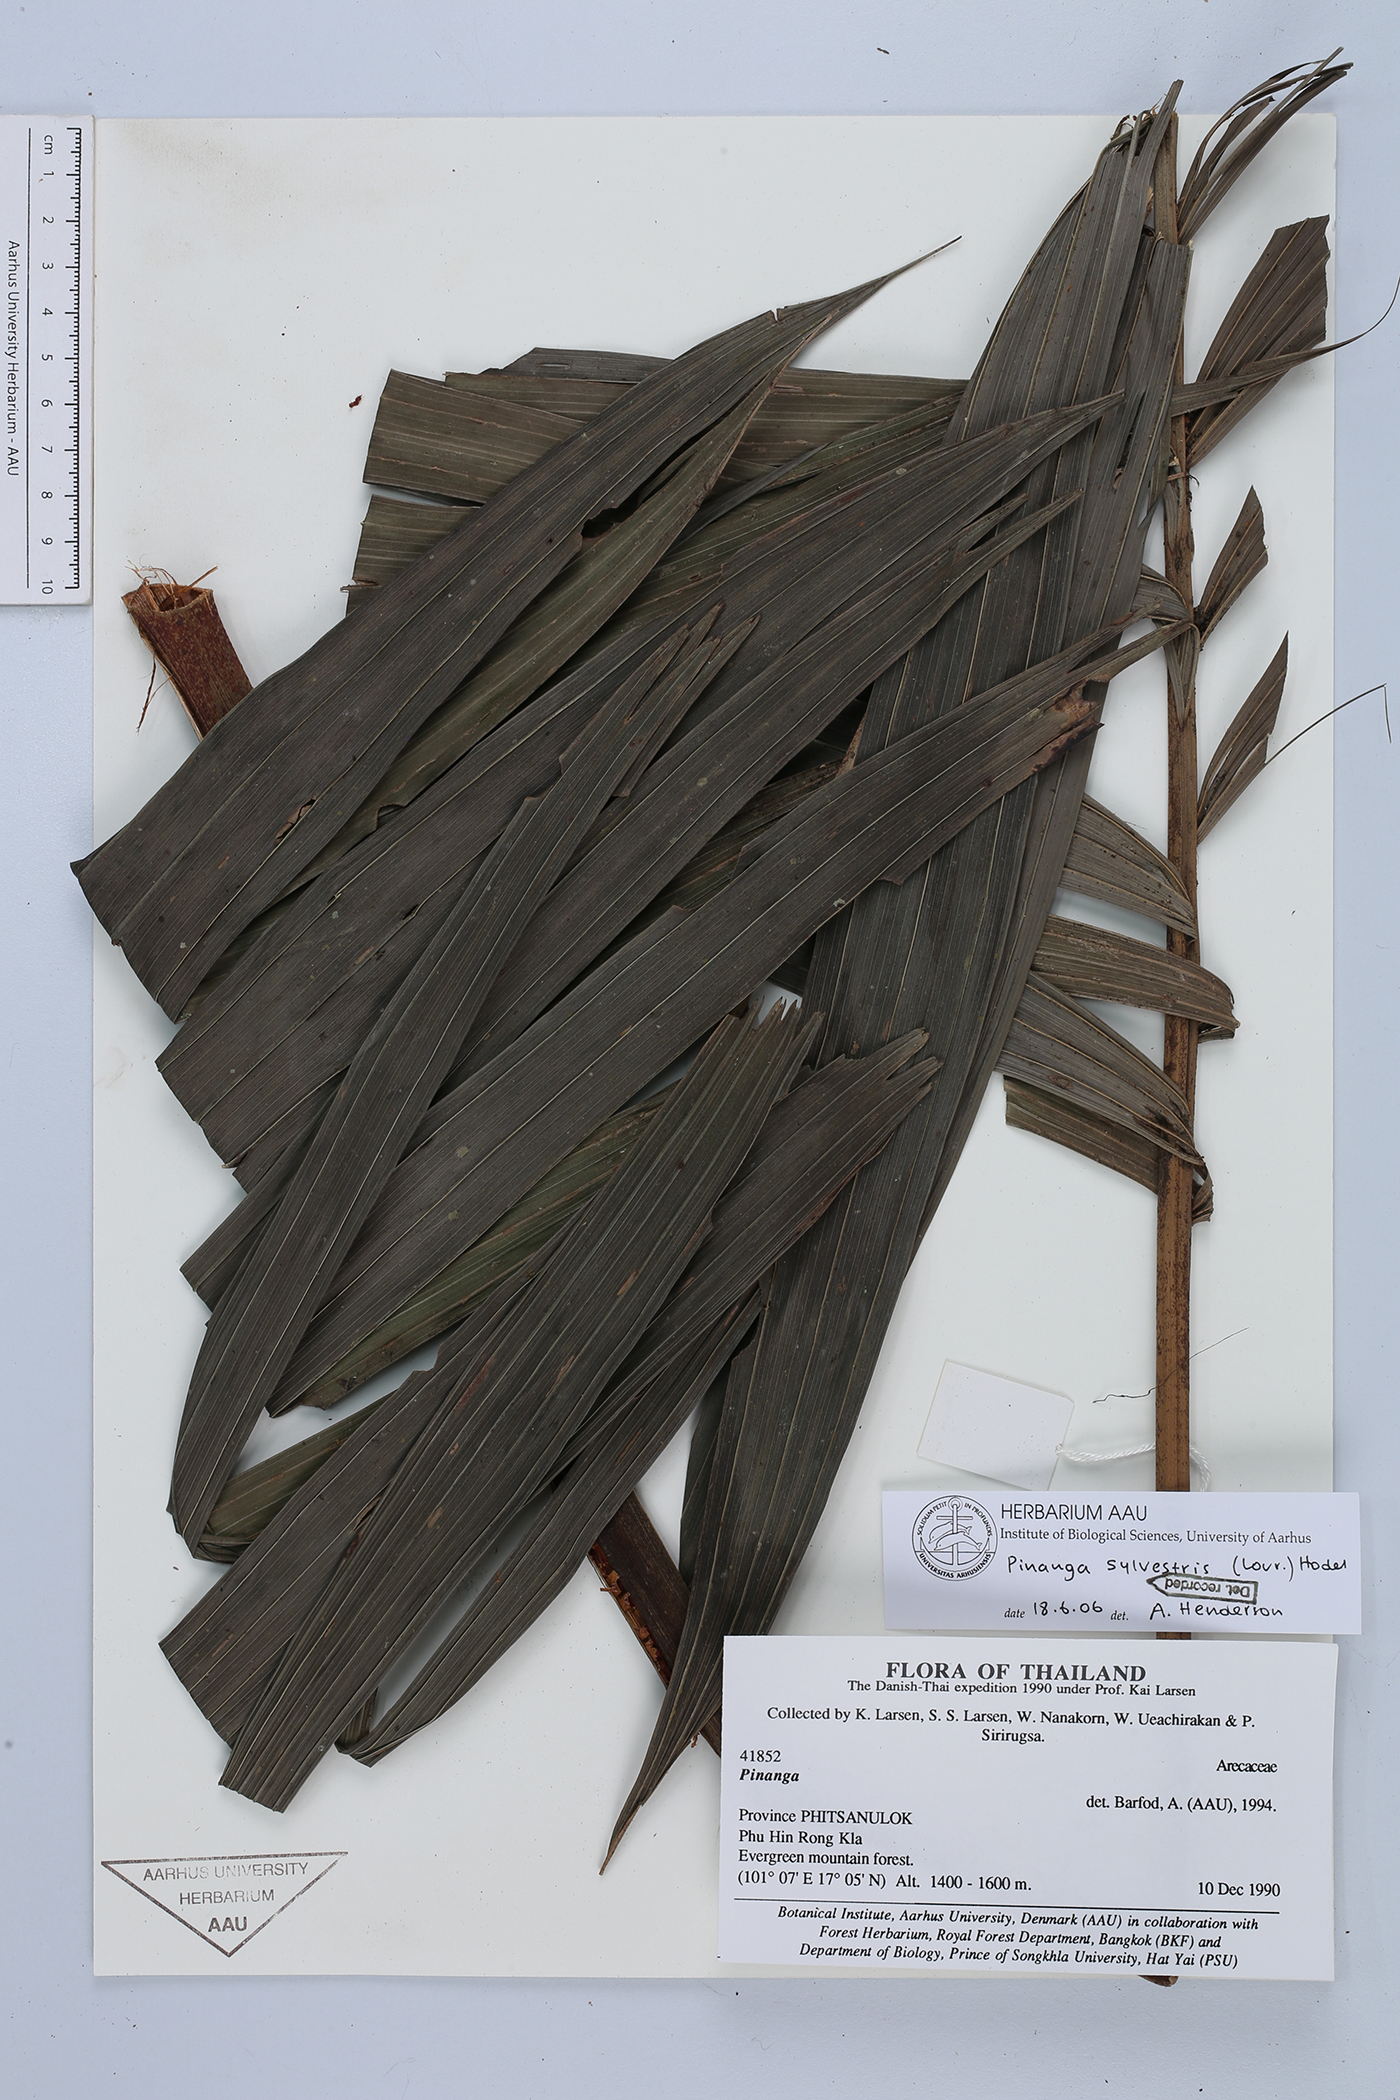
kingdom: Plantae
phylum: Tracheophyta
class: Liliopsida
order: Arecales
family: Arecaceae
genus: Pinanga
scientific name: Pinanga sylvestris
